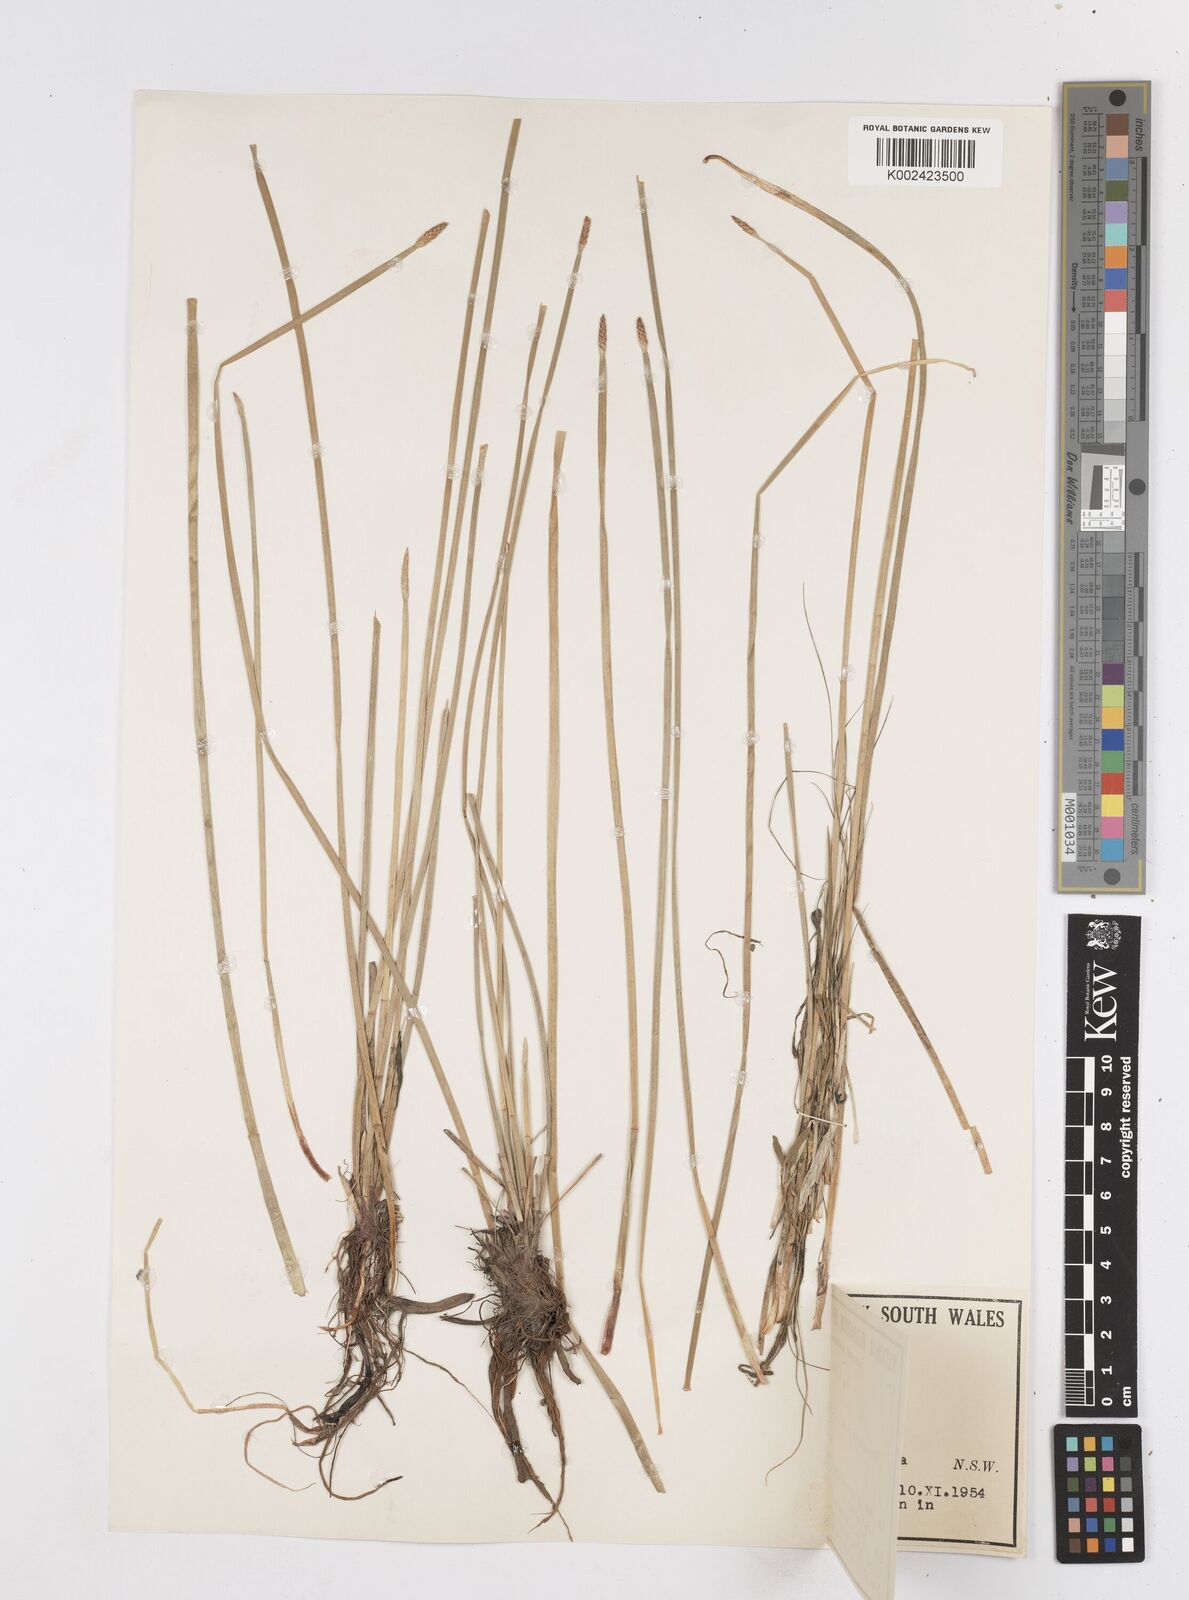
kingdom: Plantae
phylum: Tracheophyta
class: Liliopsida
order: Poales
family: Cyperaceae
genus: Eleocharis
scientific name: Eleocharis plana
